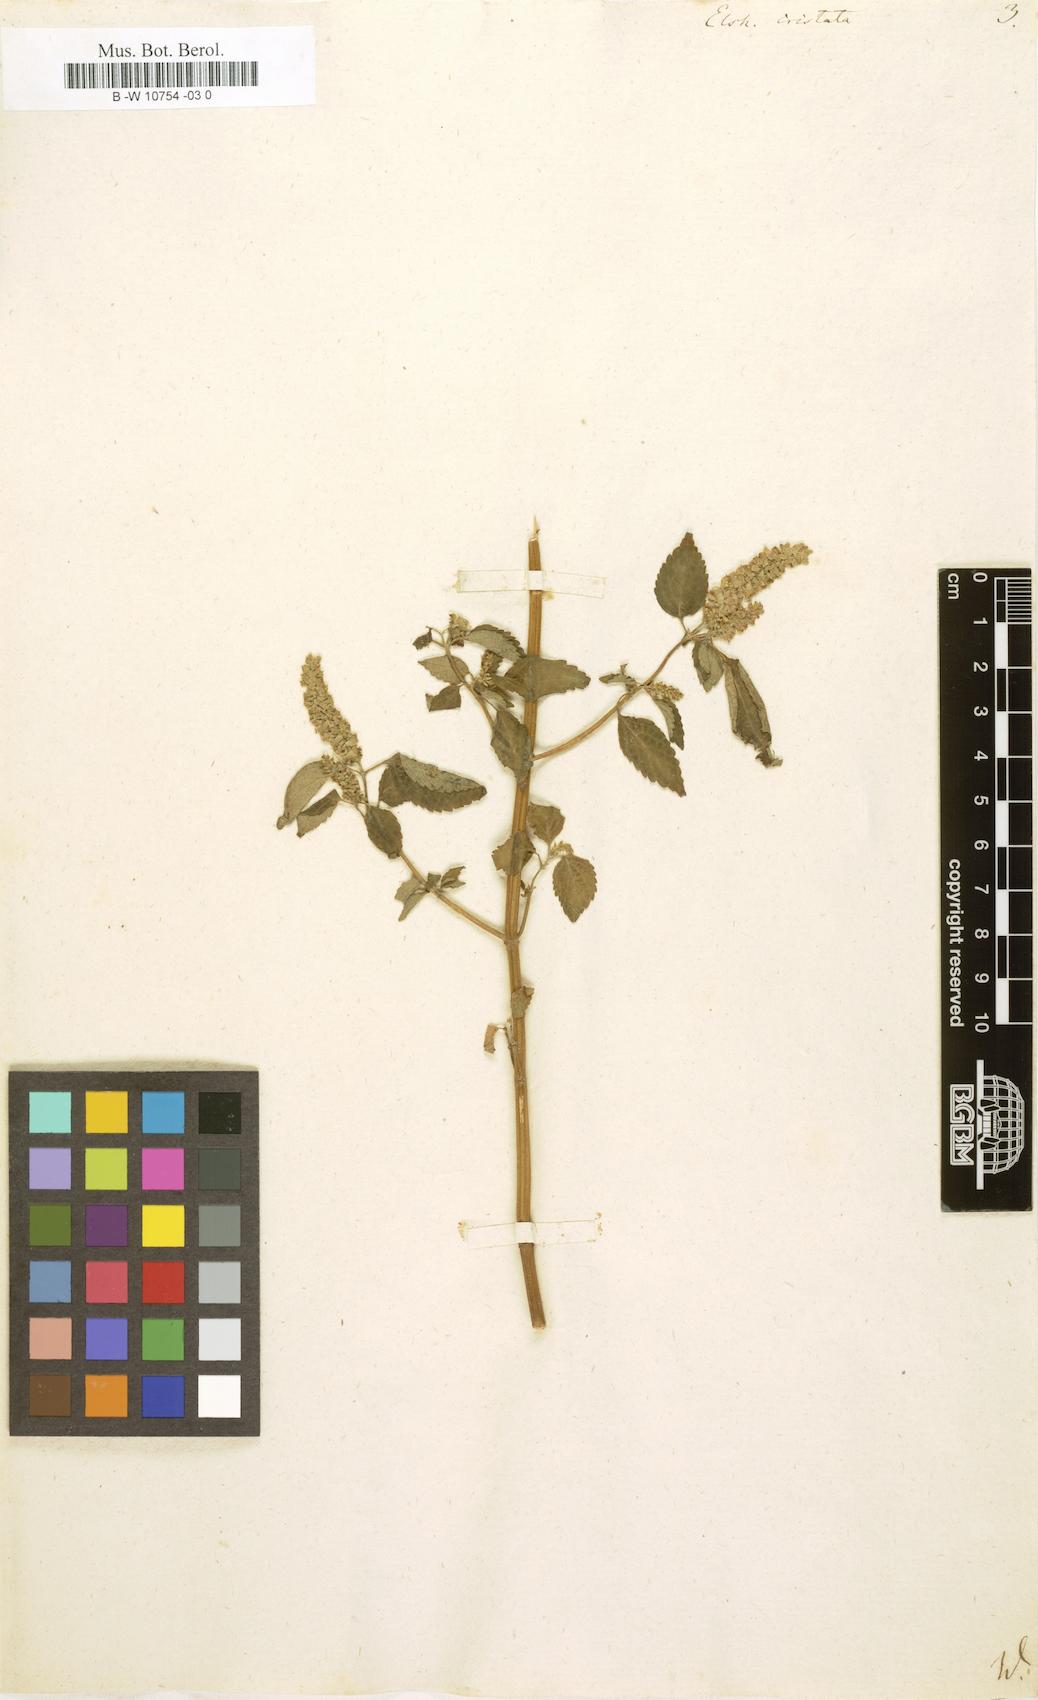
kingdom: Plantae
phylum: Tracheophyta
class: Magnoliopsida
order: Lamiales
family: Lamiaceae
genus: Elsholtzia
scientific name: Elsholtzia ciliata
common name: Ciliate elsholtzia
